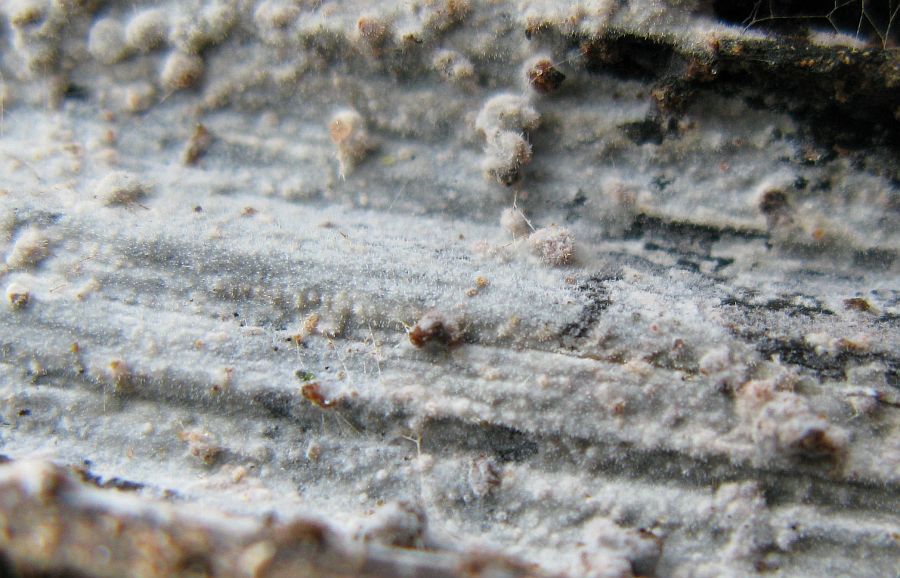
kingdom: Fungi
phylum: Basidiomycota
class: Agaricomycetes
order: Hymenochaetales
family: Rickenellaceae
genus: Peniophorella
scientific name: Peniophorella pubera
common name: dunet kalkskind
